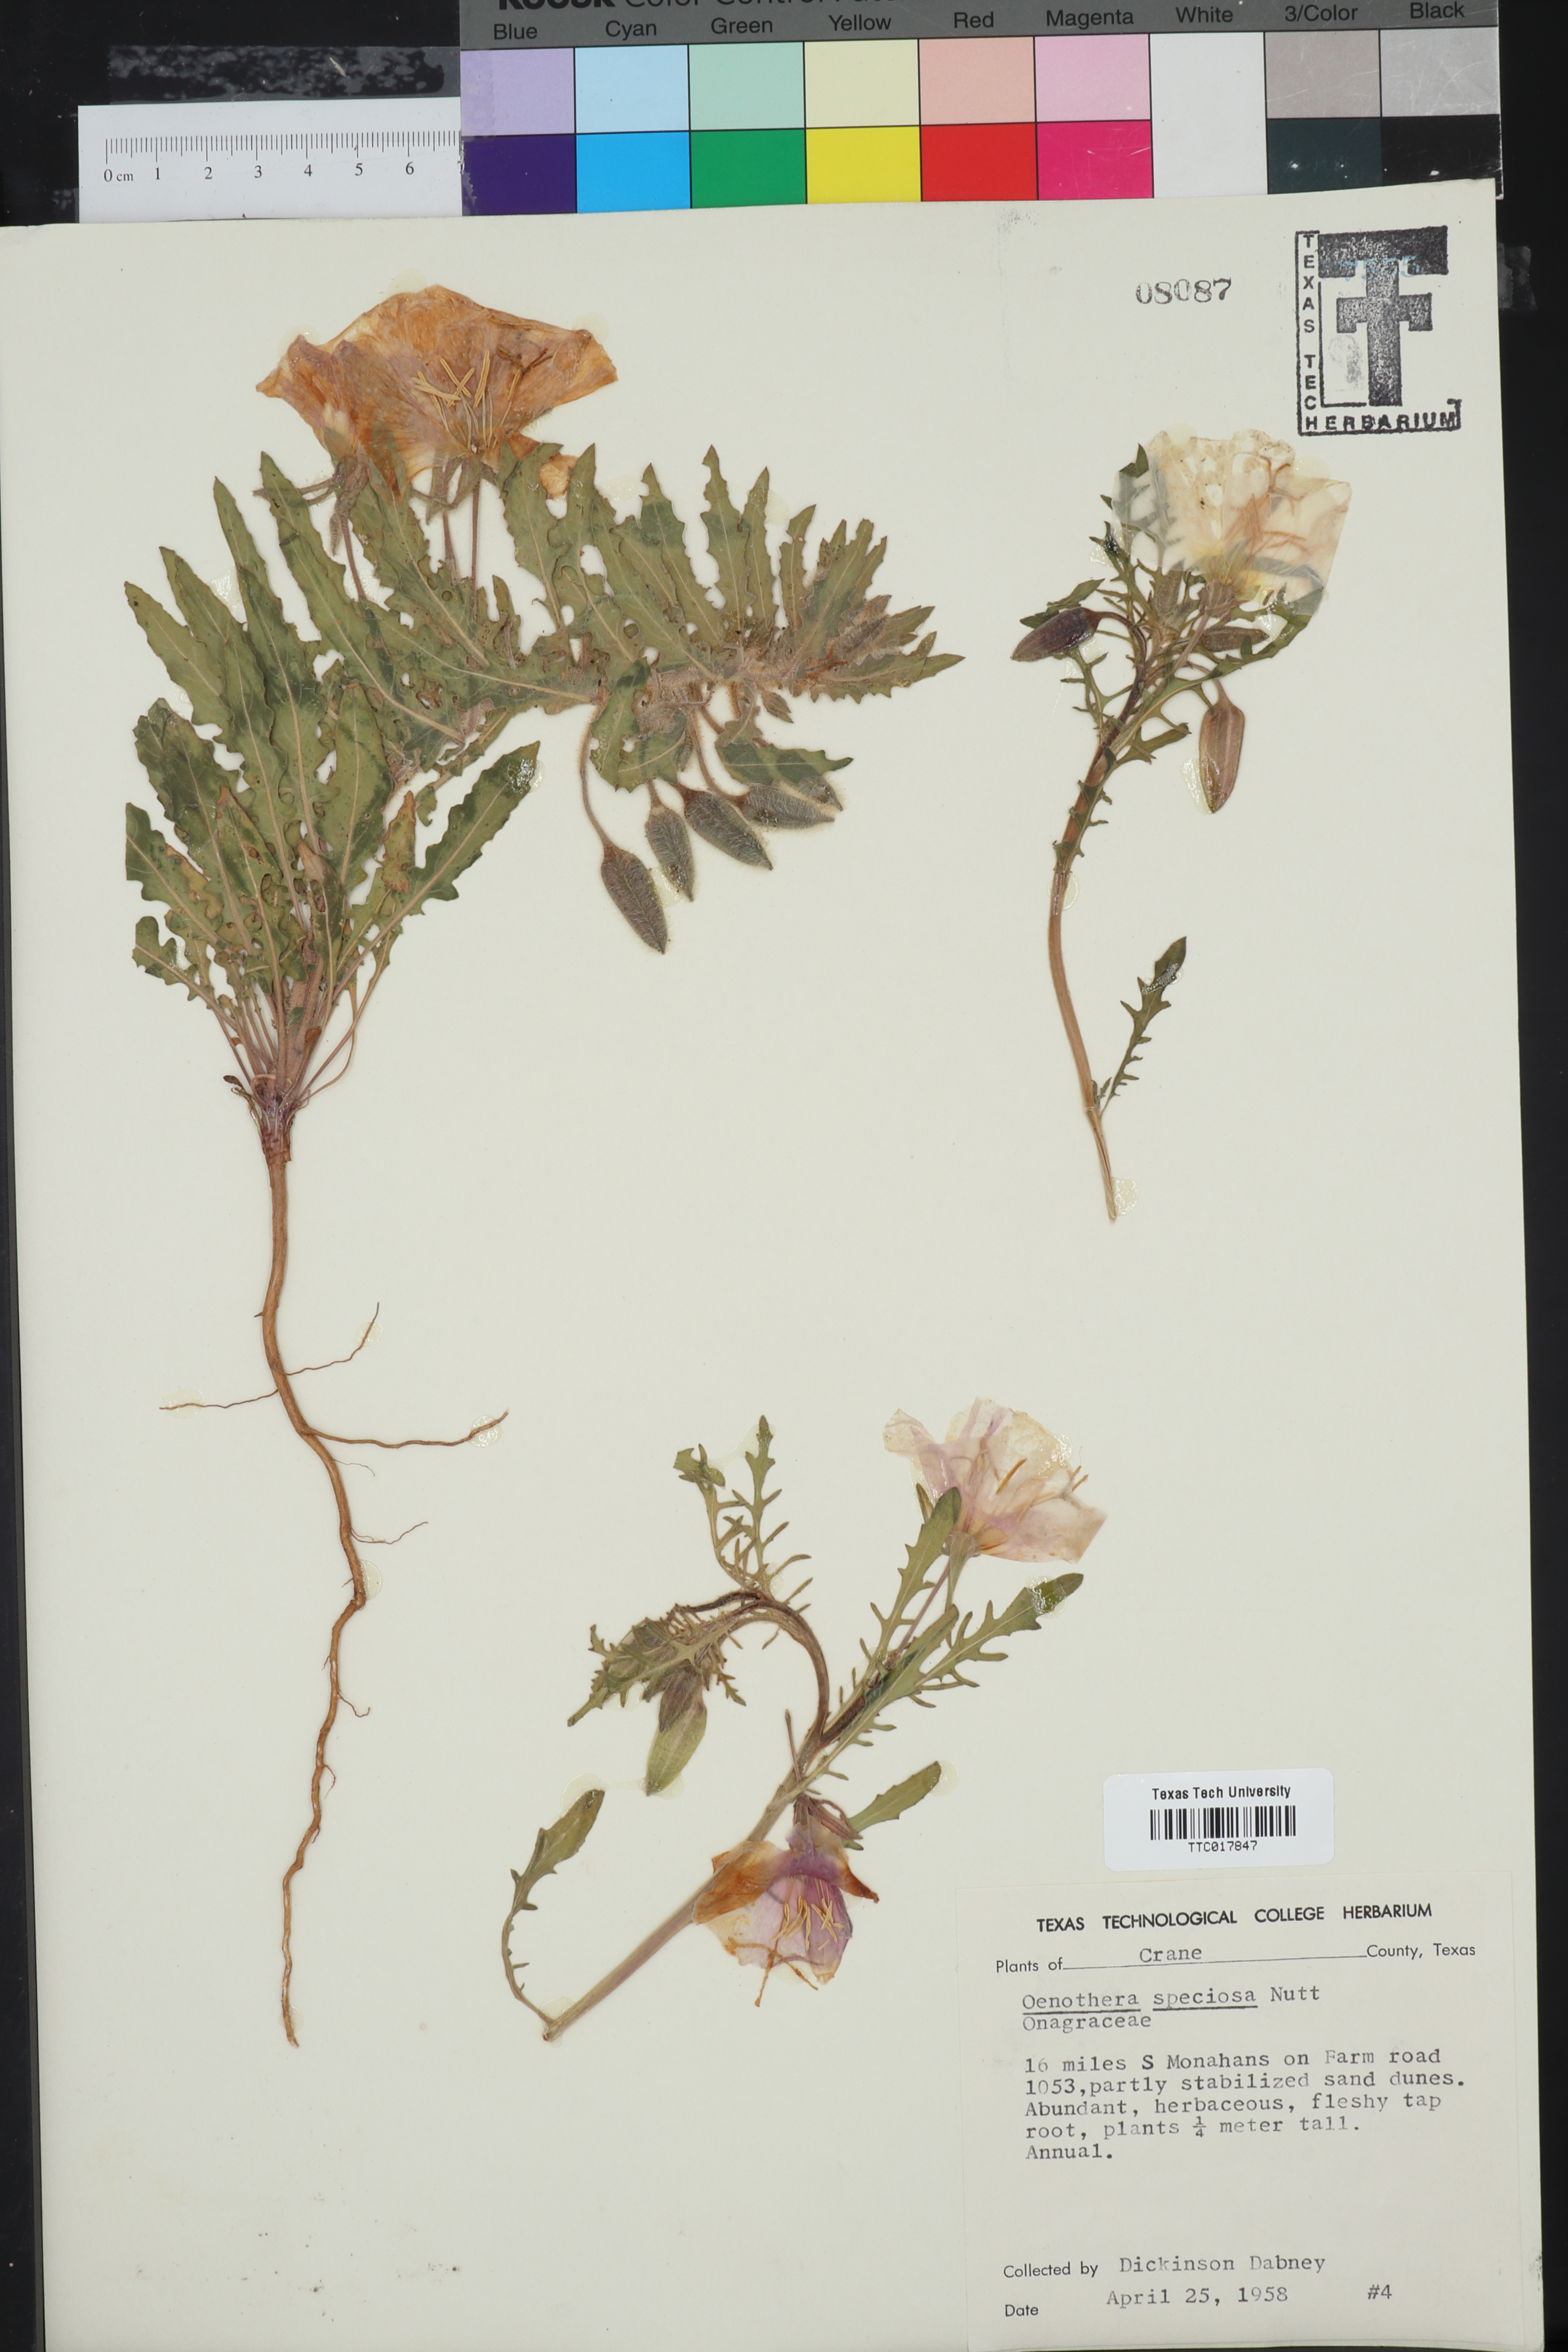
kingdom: Plantae
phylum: Tracheophyta
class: Magnoliopsida
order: Myrtales
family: Onagraceae
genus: Oenothera
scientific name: Oenothera speciosa
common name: White evening-primrose
